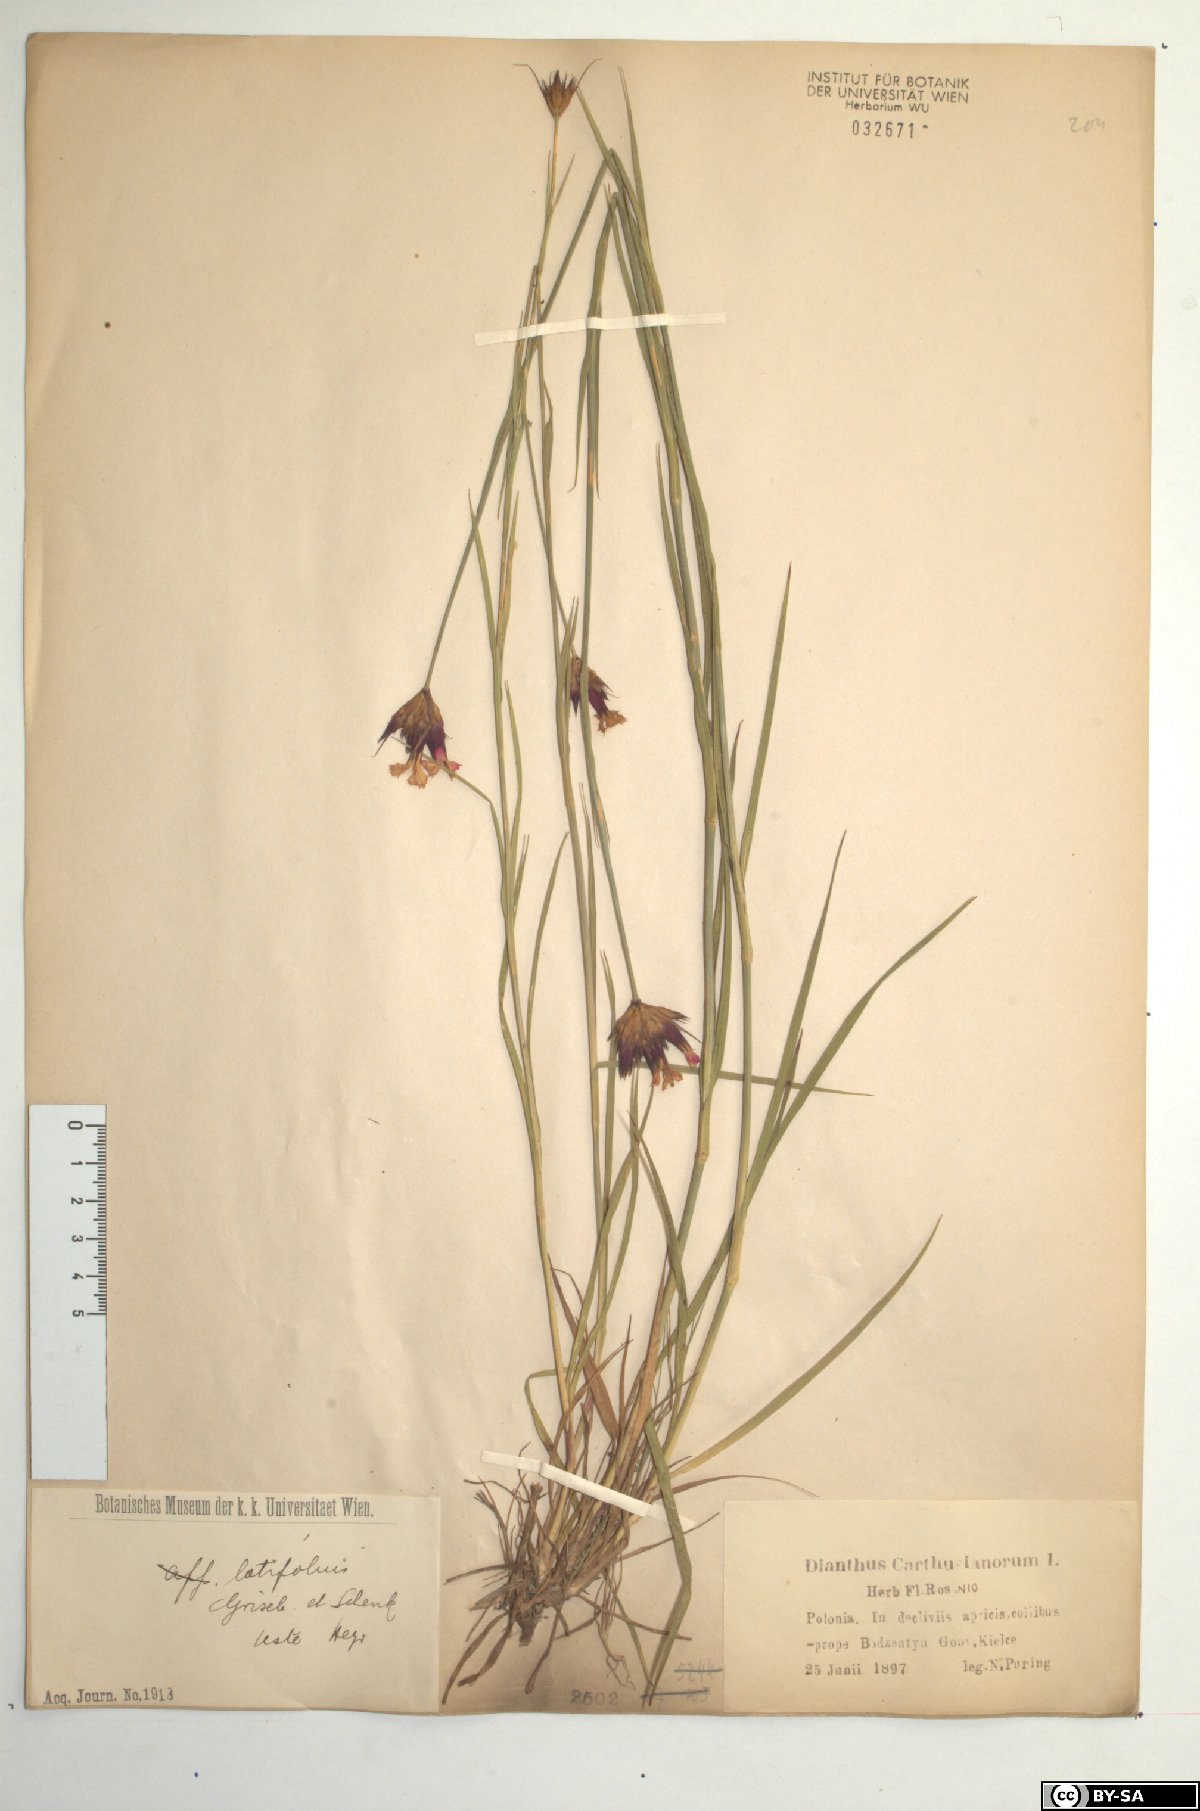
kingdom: Plantae
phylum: Tracheophyta
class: Magnoliopsida
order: Caryophyllales
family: Caryophyllaceae
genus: Dianthus
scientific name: Dianthus carthusianorum
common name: Carthusian pink
